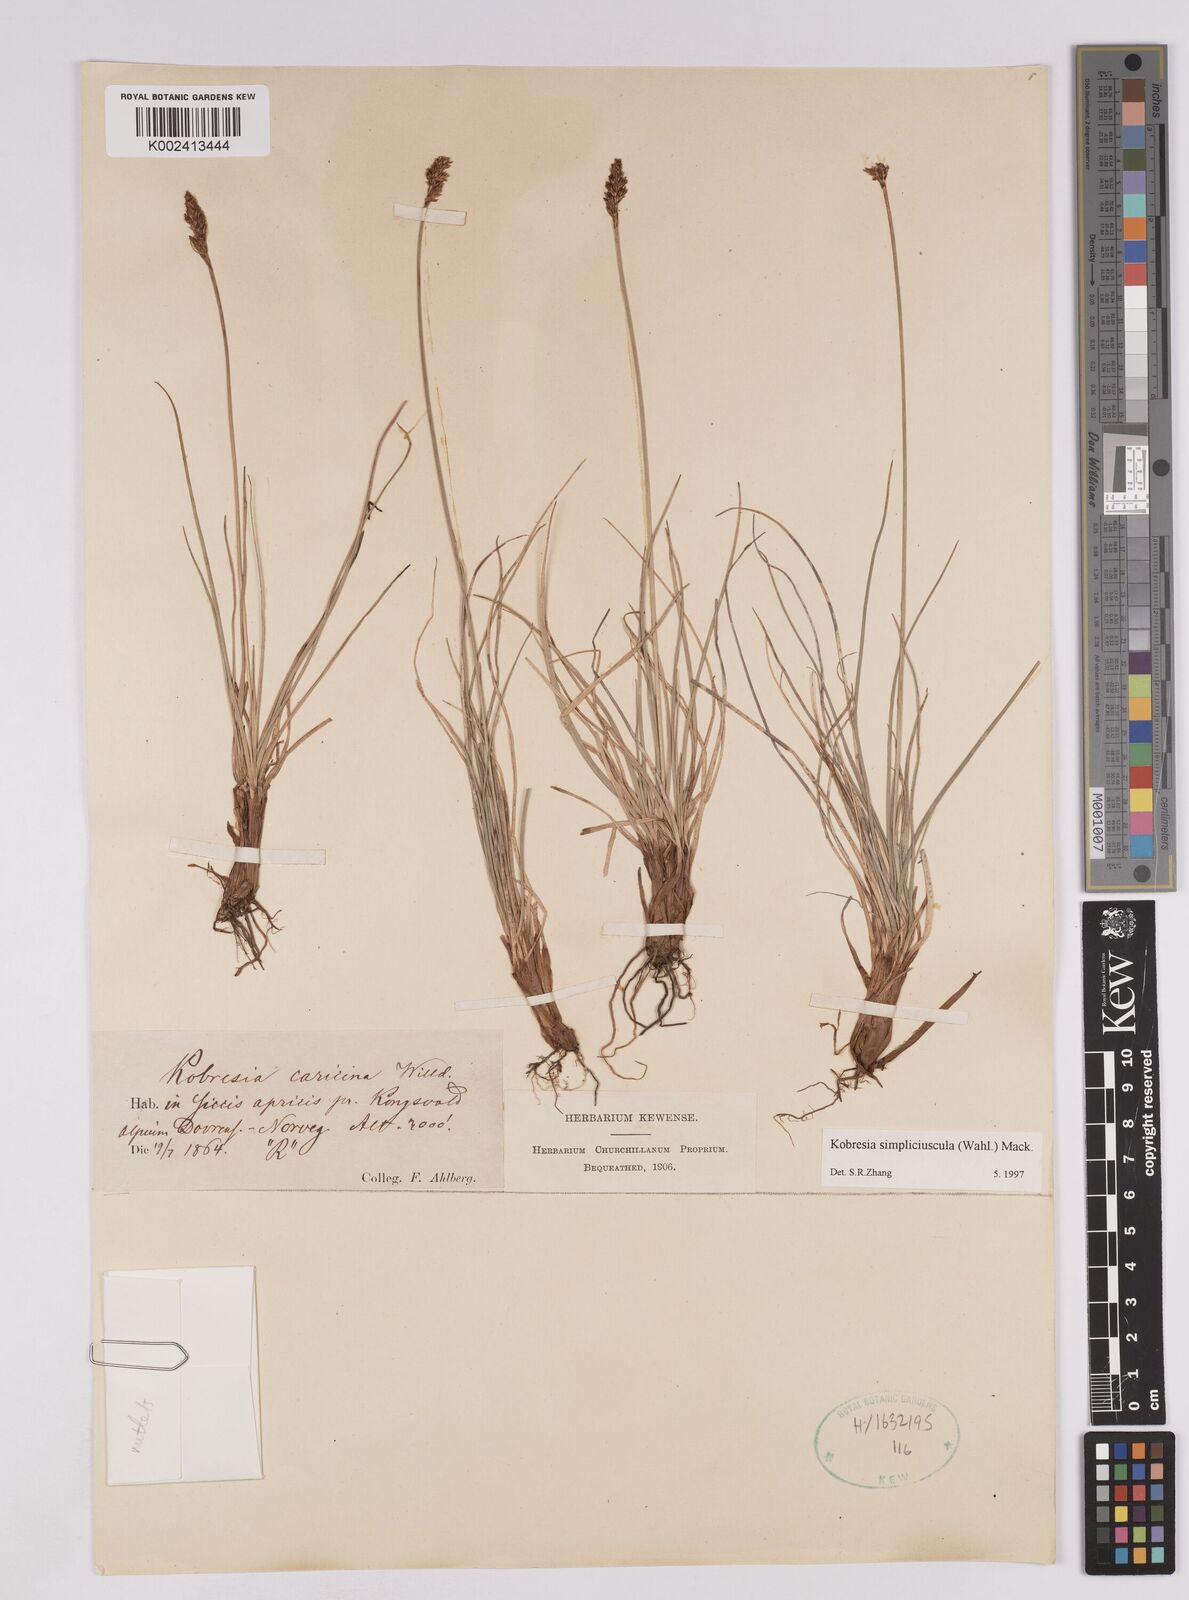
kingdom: Plantae
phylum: Tracheophyta
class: Liliopsida
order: Poales
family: Cyperaceae
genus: Carex
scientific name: Carex simpliciuscula
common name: Simple bog sedge
